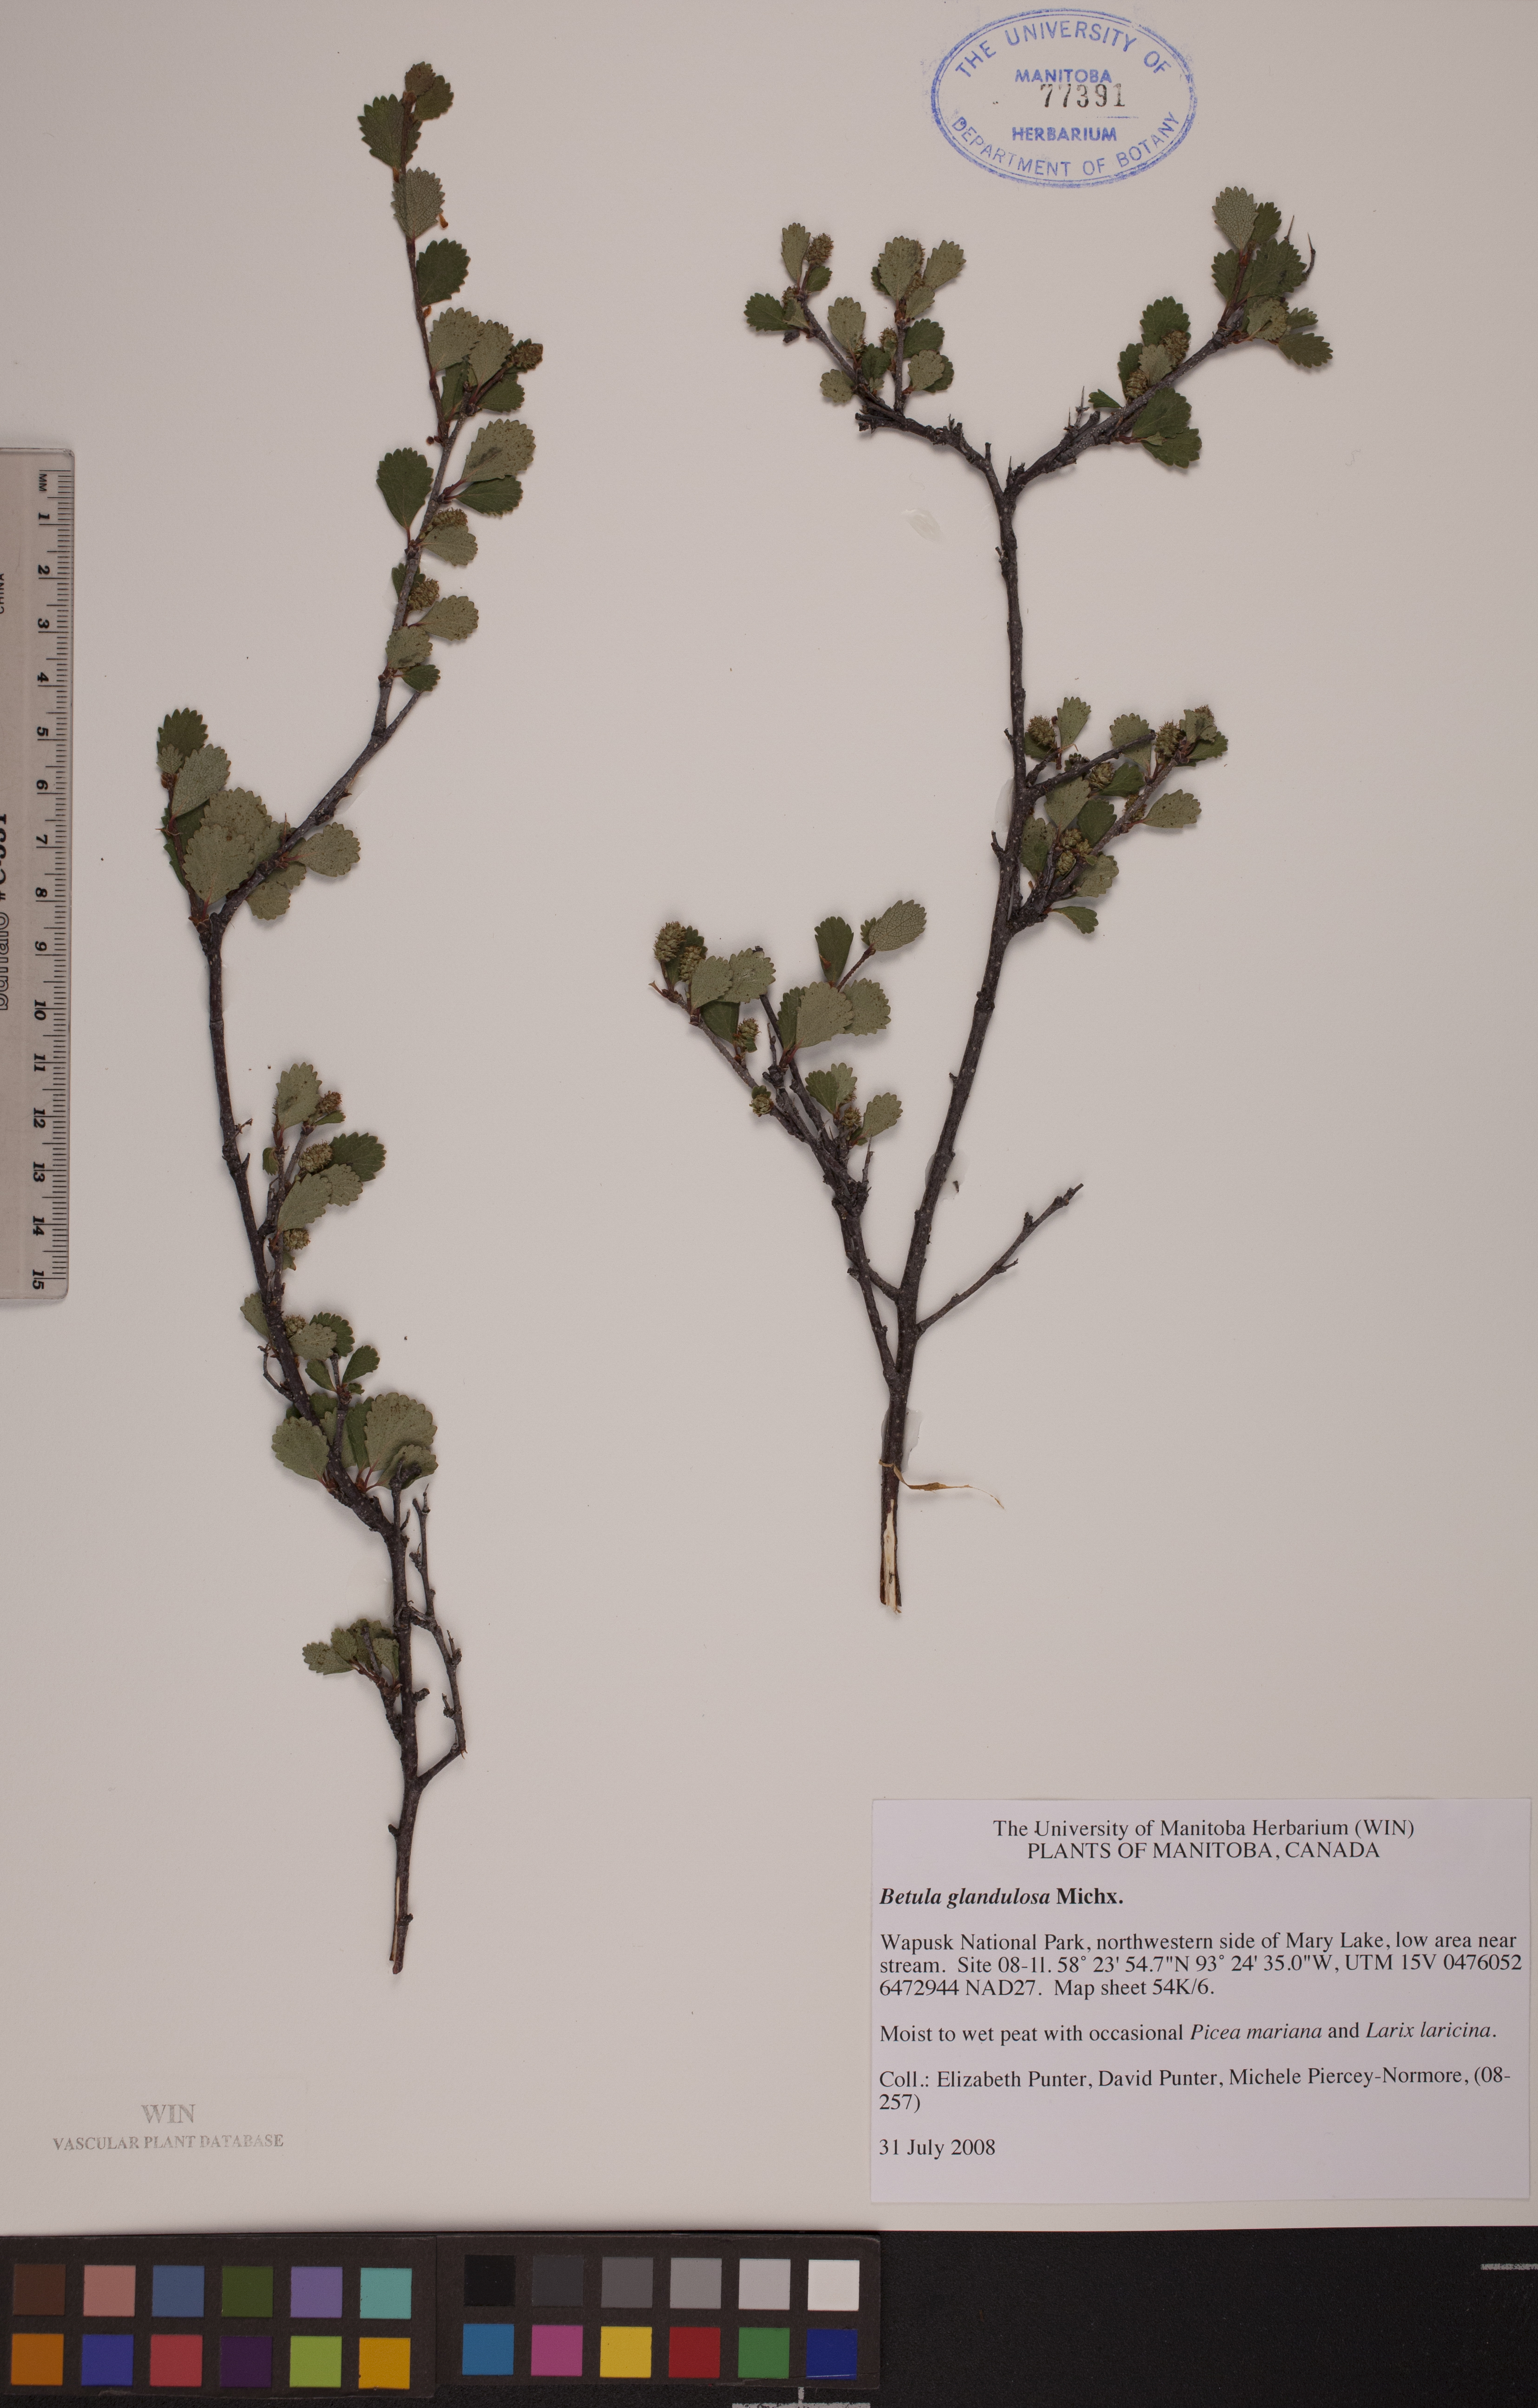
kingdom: Plantae
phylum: Tracheophyta
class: Magnoliopsida
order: Fagales
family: Betulaceae
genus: Betula
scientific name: Betula glandulosa
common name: Dwarf birch
